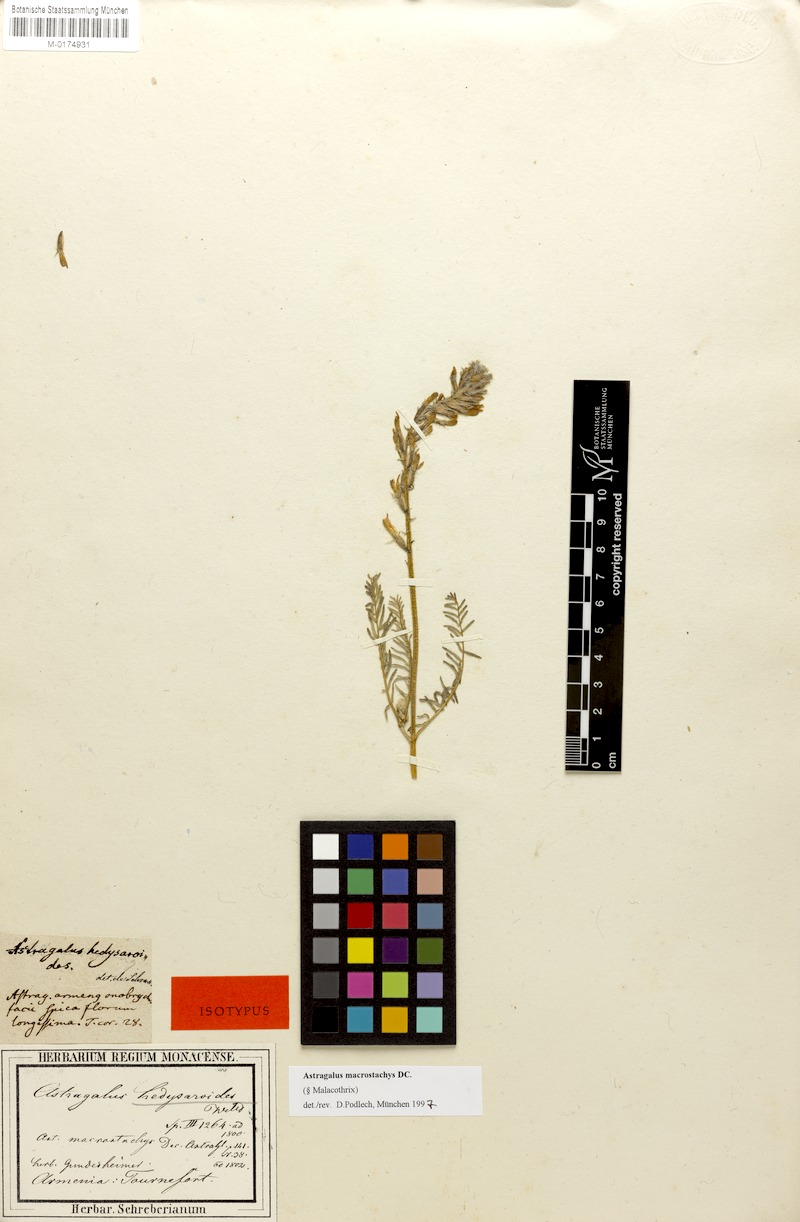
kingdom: Plantae
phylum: Tracheophyta
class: Magnoliopsida
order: Fabales
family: Fabaceae
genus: Astragalus
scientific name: Astragalus macrostachys
